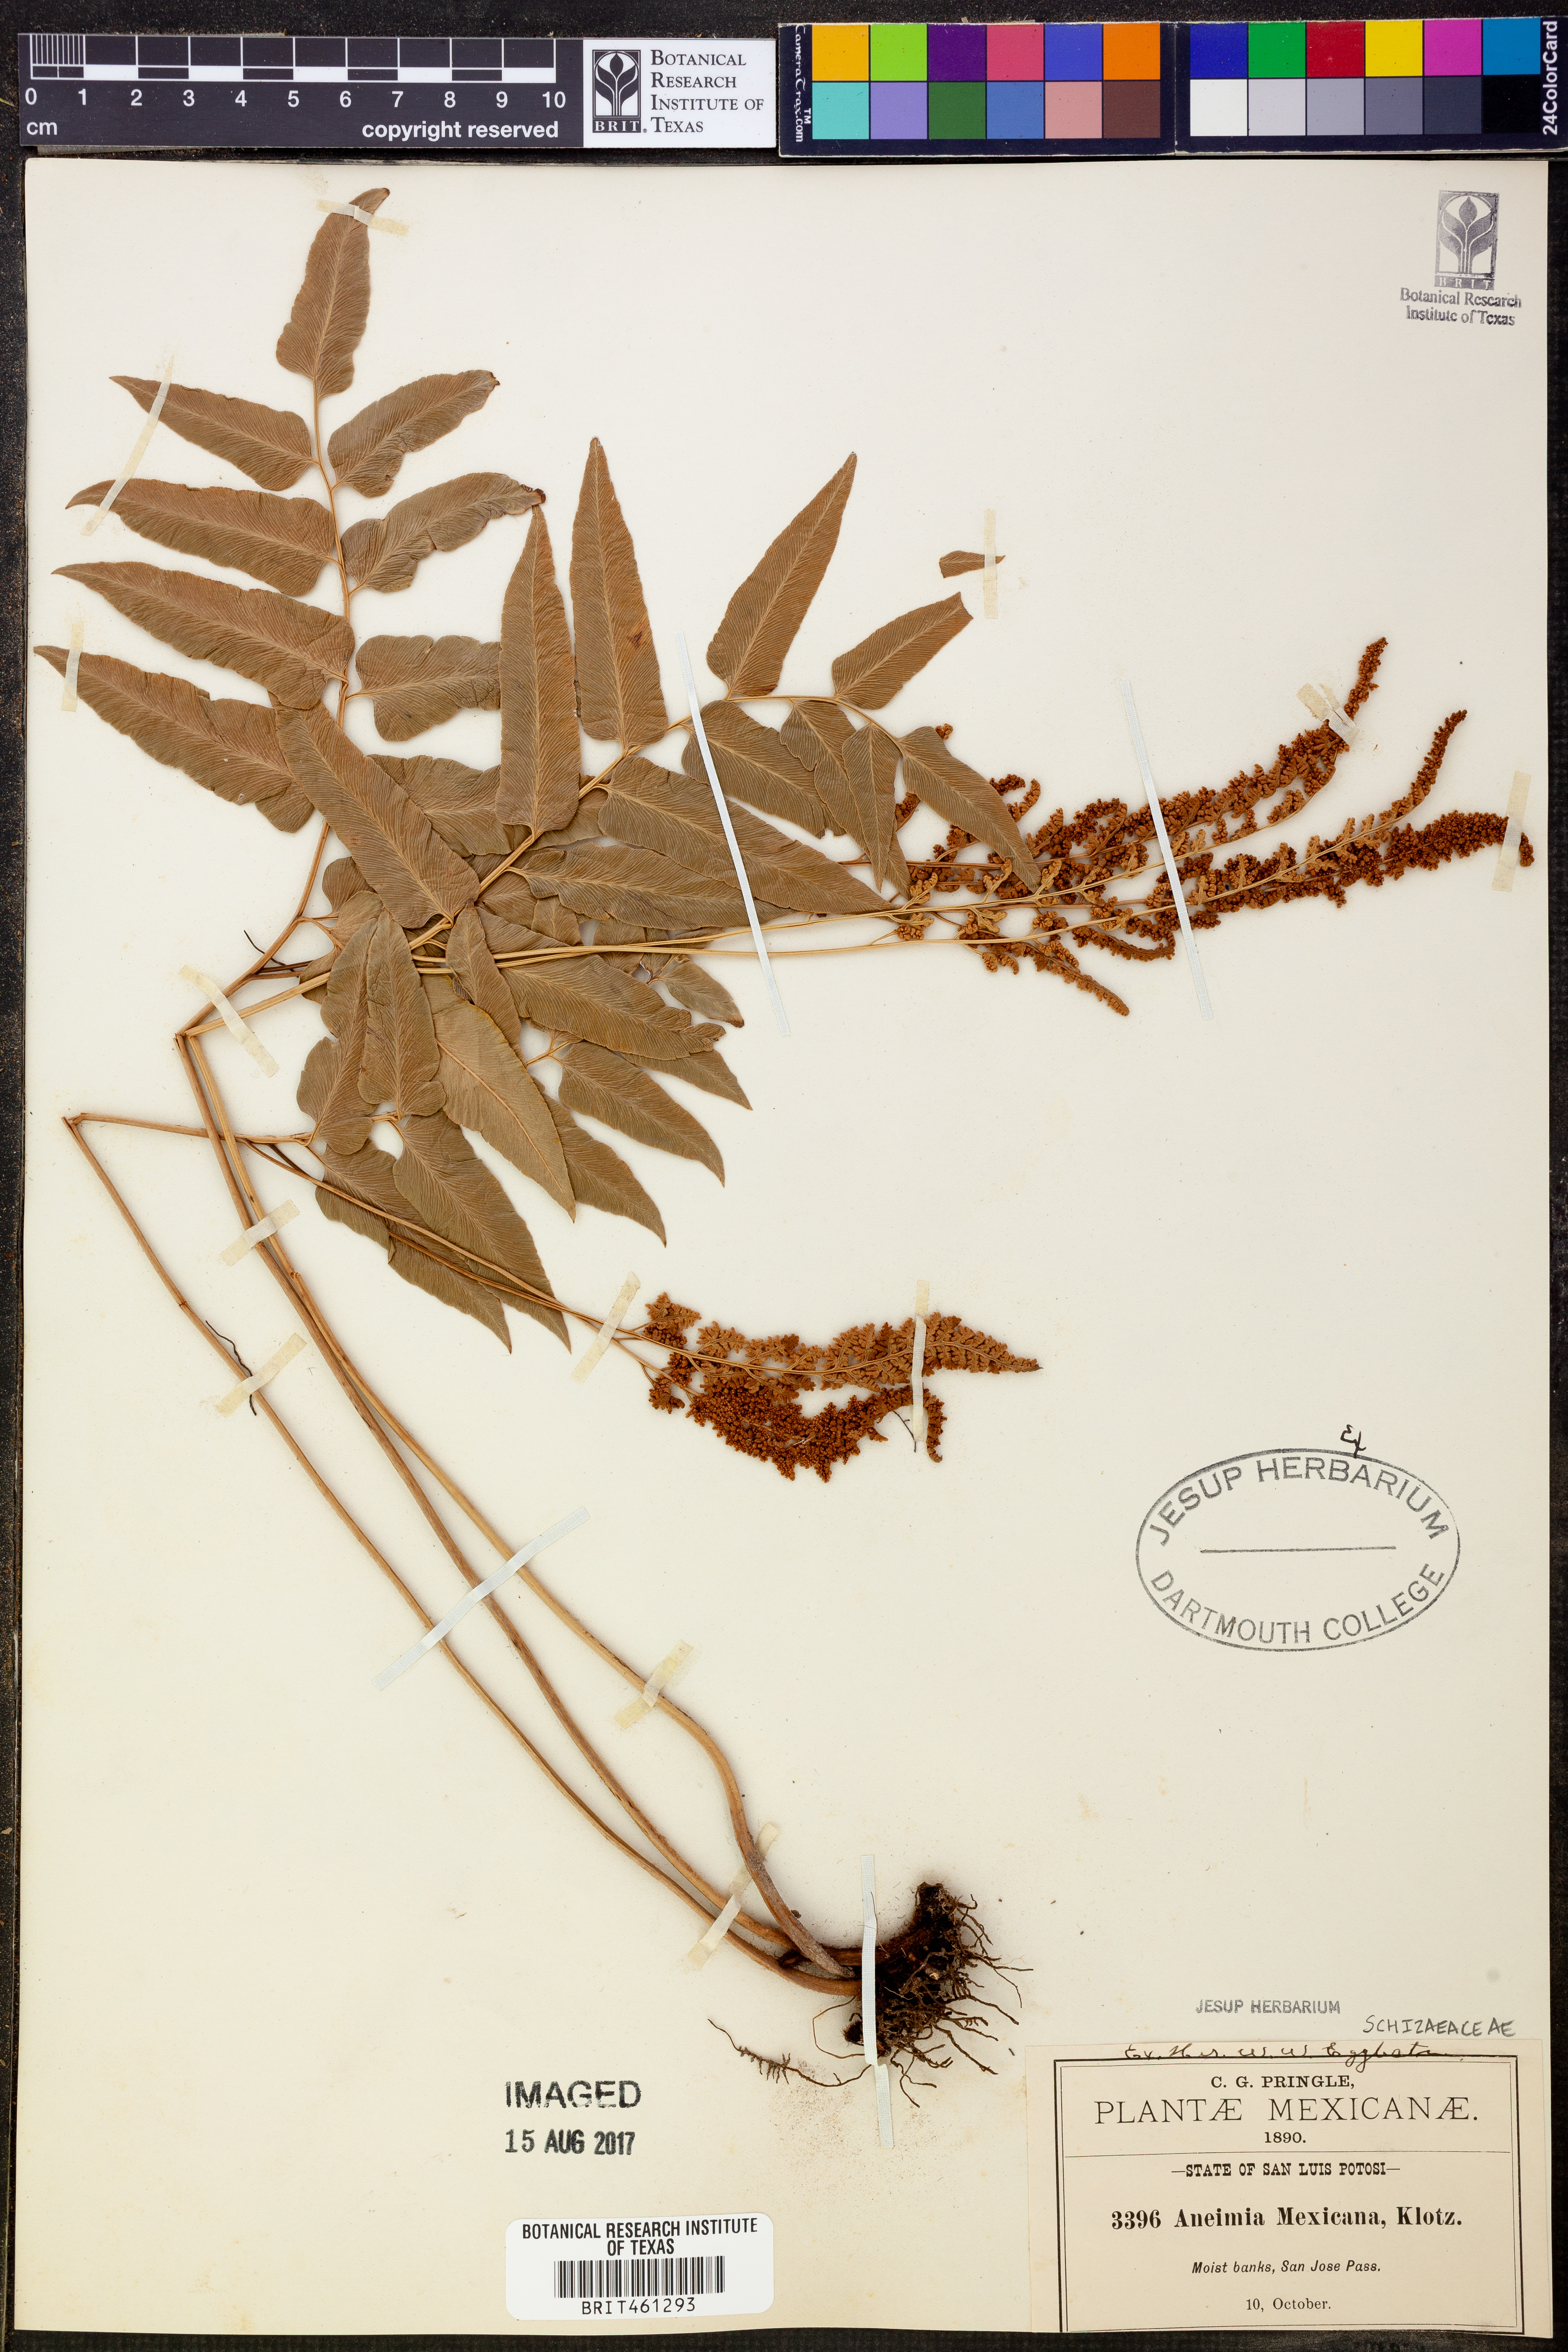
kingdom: Plantae
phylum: Tracheophyta
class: Polypodiopsida
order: Schizaeales
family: Anemiaceae
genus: Anemia
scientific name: Anemia mexicana
